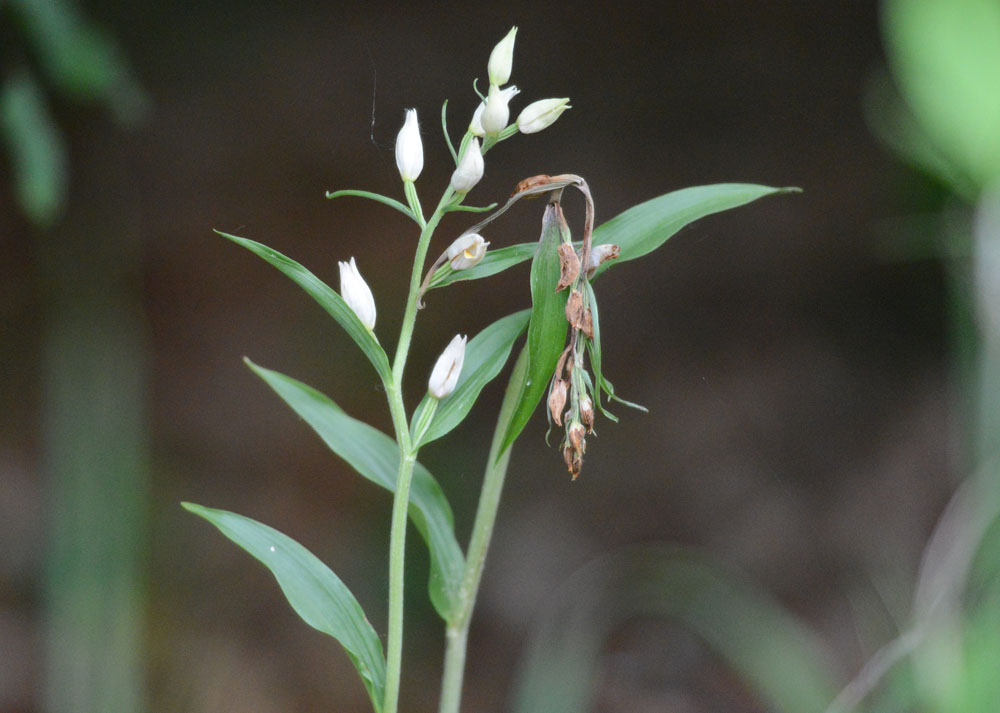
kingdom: Plantae
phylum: Tracheophyta
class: Liliopsida
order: Asparagales
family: Orchidaceae
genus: Cephalanthera
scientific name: Cephalanthera damasonium
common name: White helleborine
